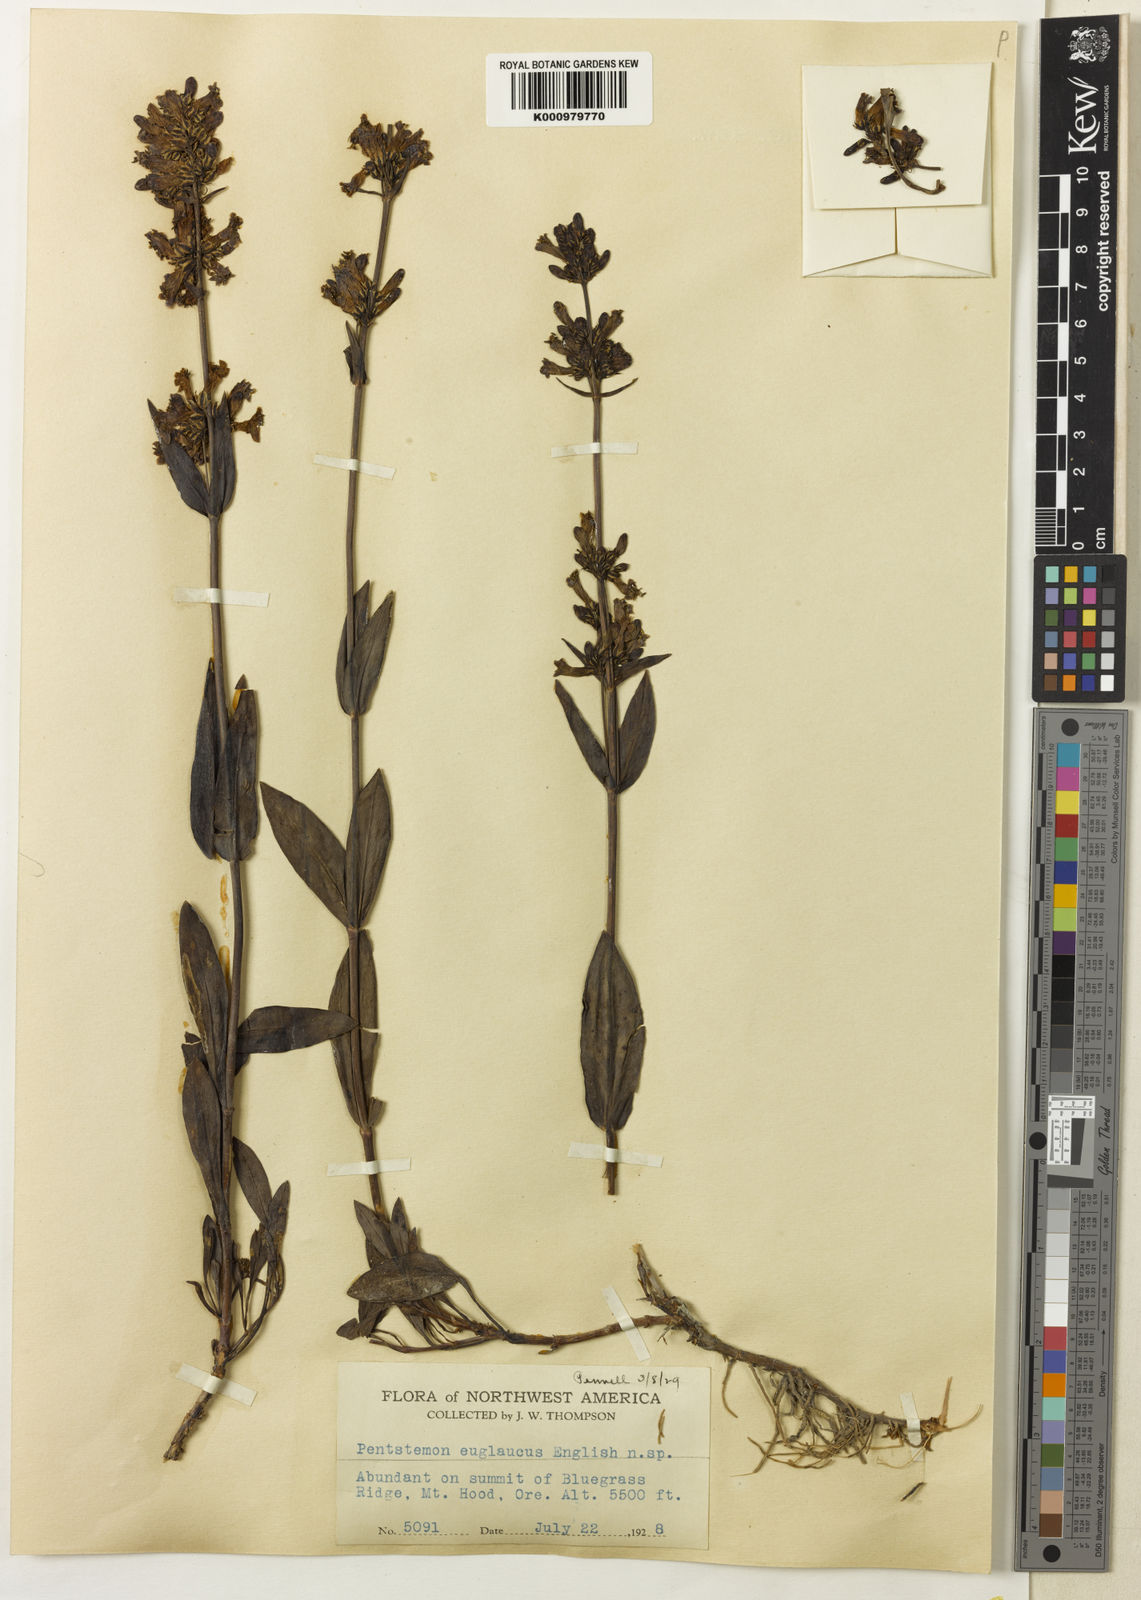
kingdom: Plantae
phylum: Tracheophyta
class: Magnoliopsida
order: Lamiales
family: Plantaginaceae
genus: Penstemon
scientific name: Penstemon euglaucus
